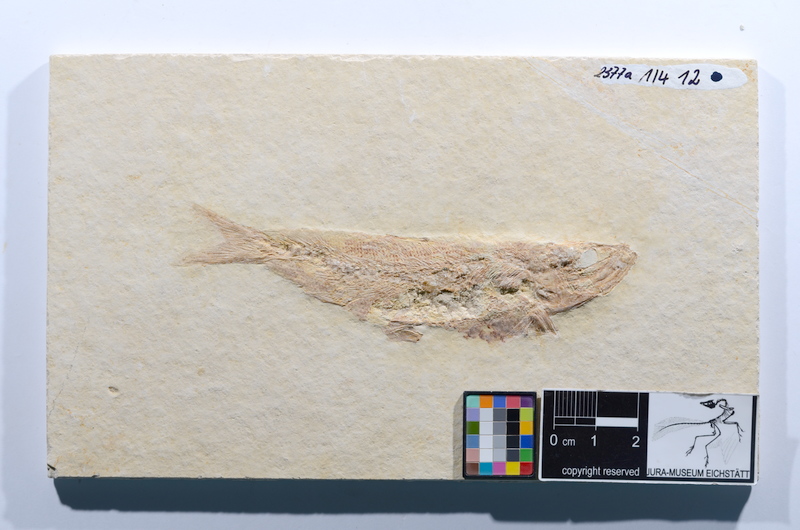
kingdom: Animalia
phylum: Chordata
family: Ascalaboidae
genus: Tharsis
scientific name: Tharsis dubius
